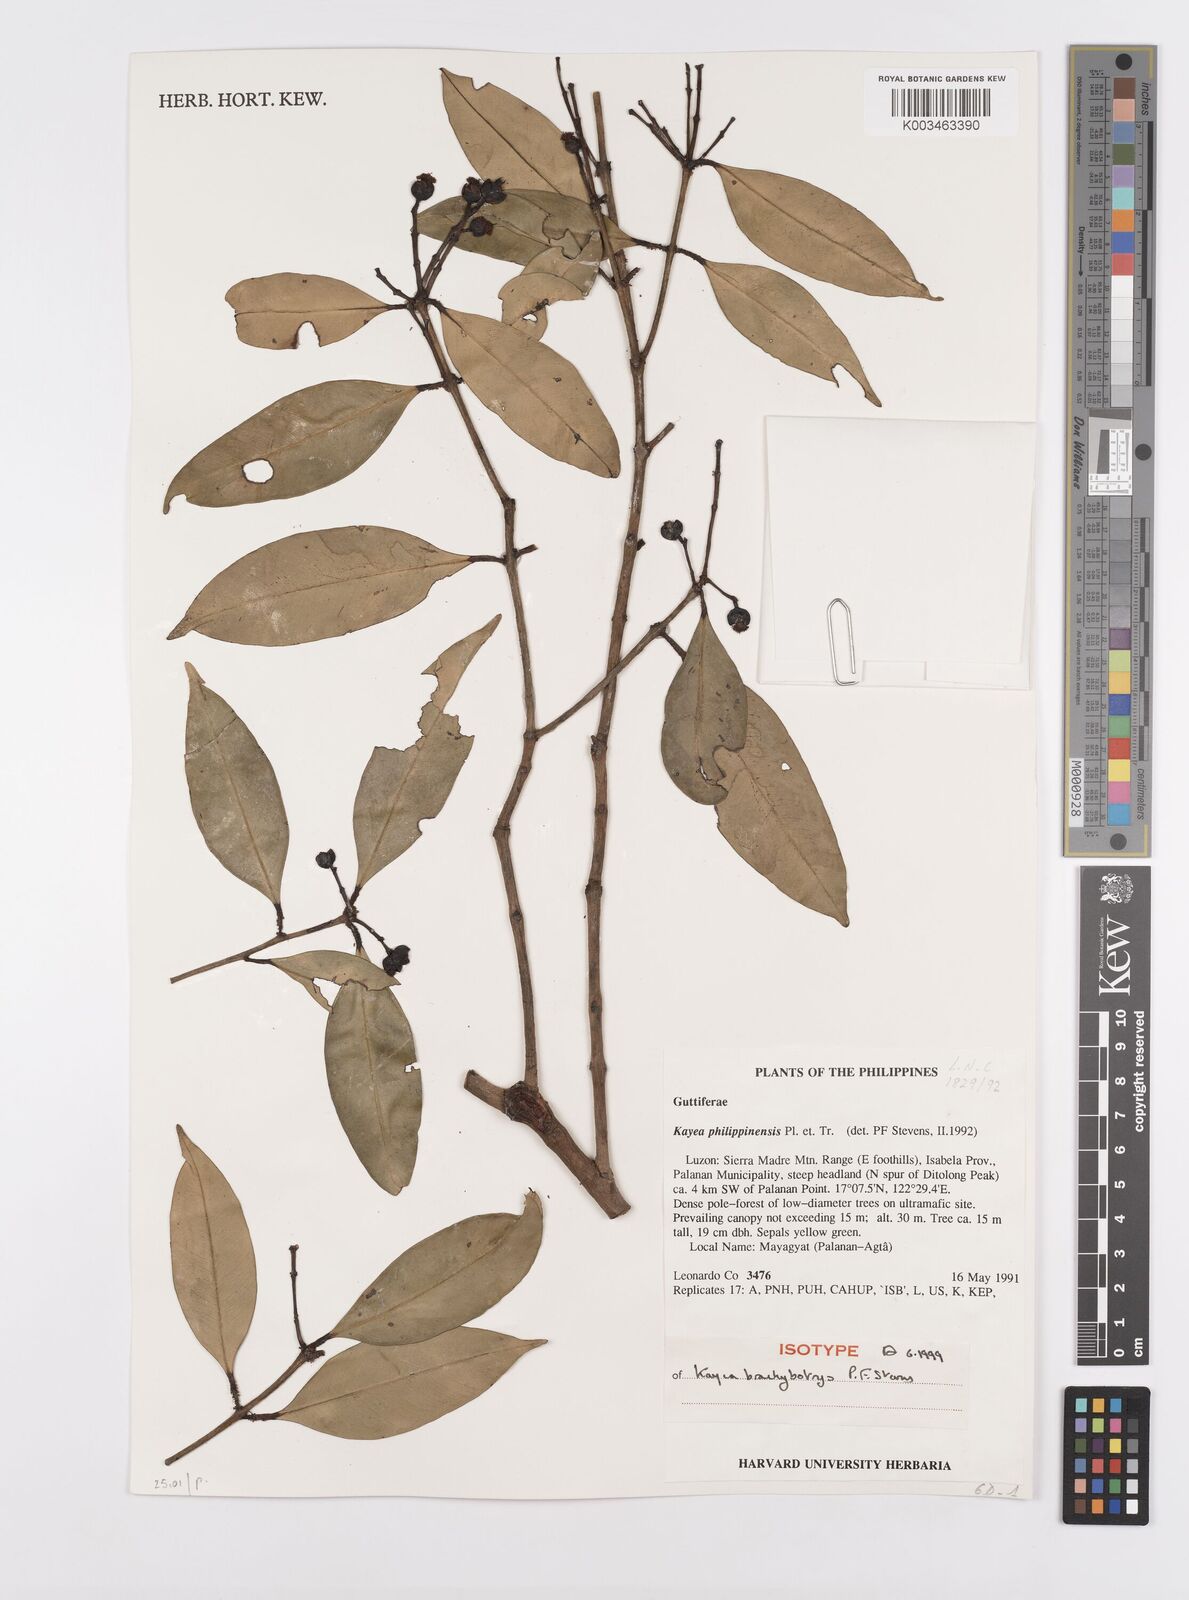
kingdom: Plantae
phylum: Tracheophyta
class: Magnoliopsida
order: Malpighiales
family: Calophyllaceae
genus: Kayea
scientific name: Kayea
